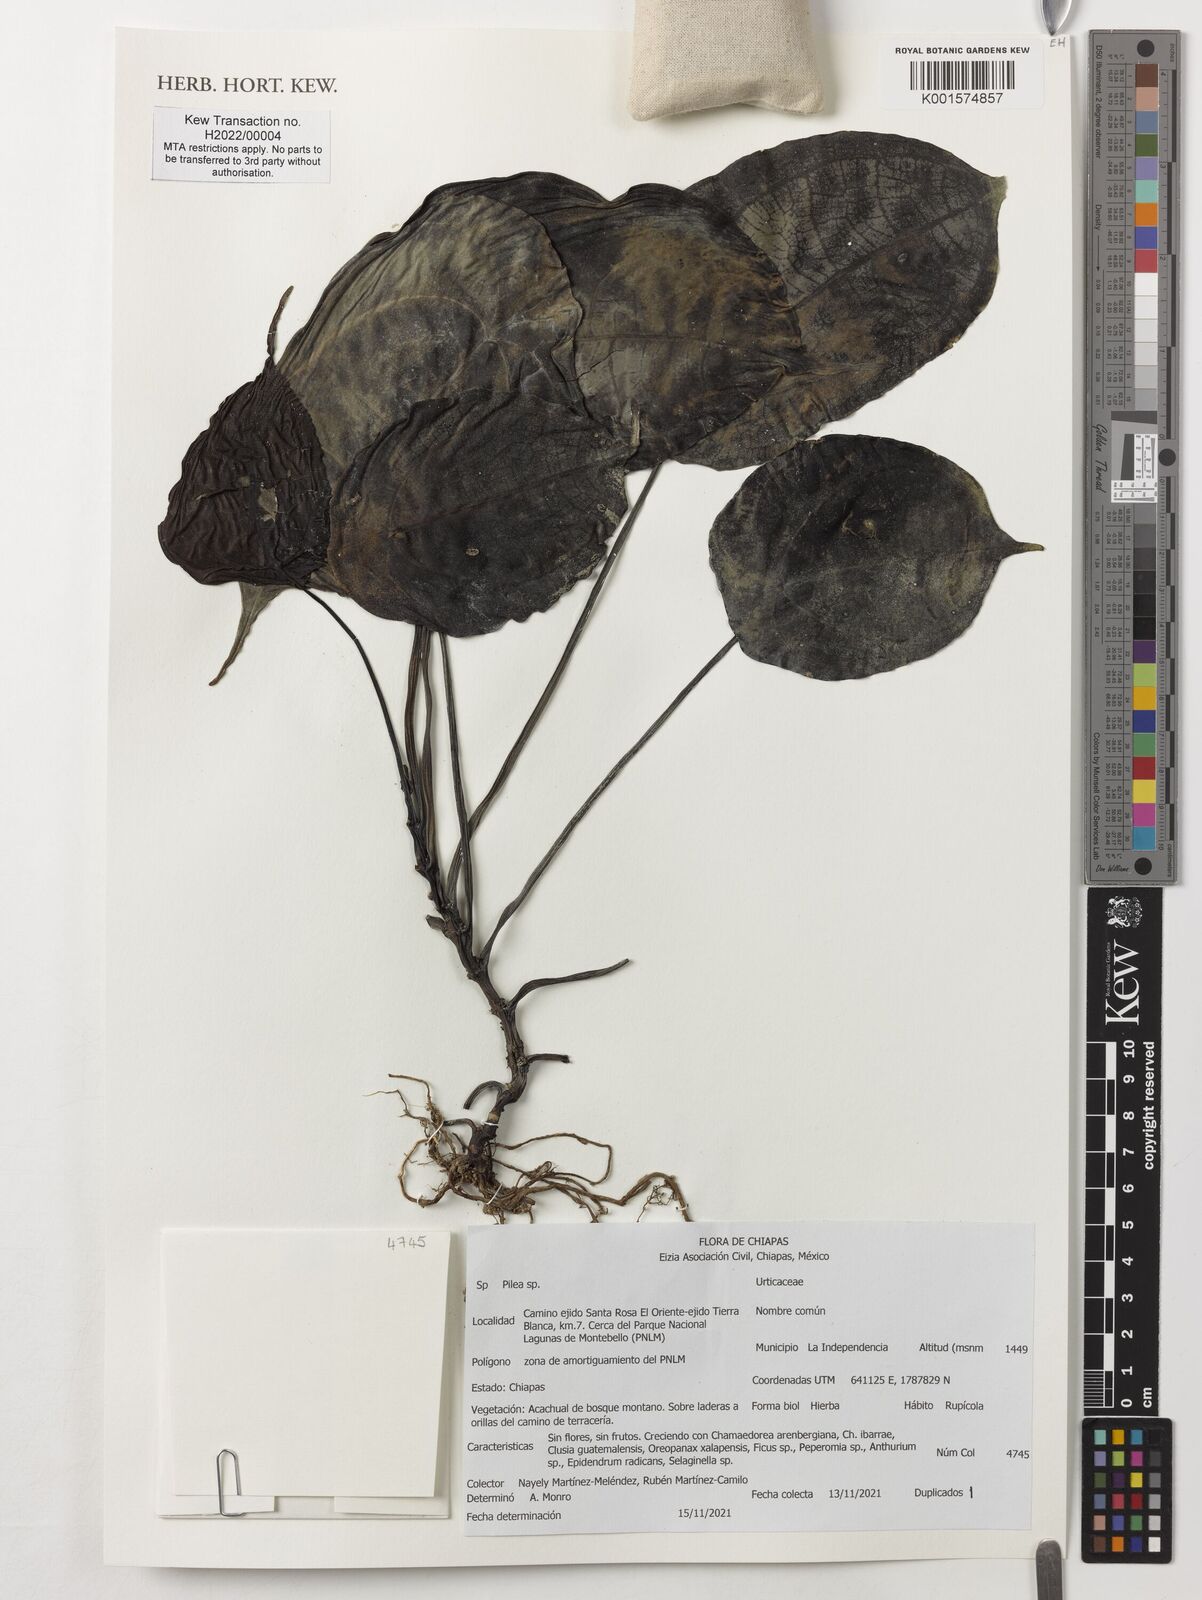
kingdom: Plantae
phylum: Tracheophyta
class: Magnoliopsida
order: Rosales
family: Urticaceae
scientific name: Urticaceae
